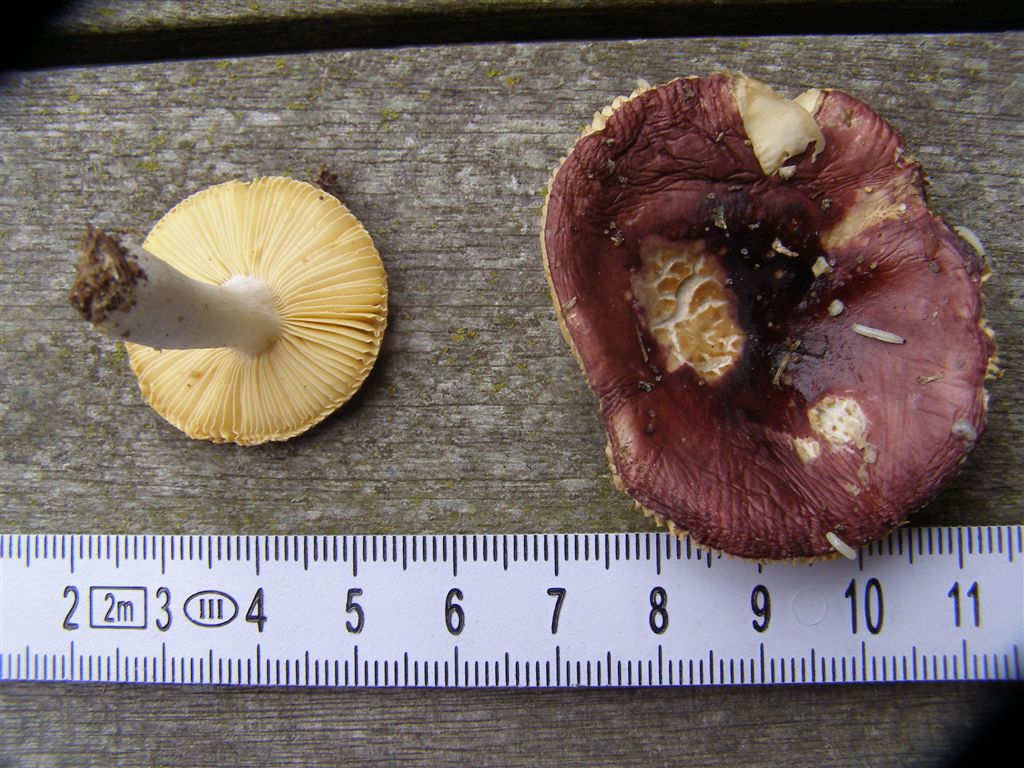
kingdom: Fungi
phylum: Basidiomycota
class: Agaricomycetes
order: Russulales
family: Russulaceae
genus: Russula
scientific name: Russula cessans
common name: fyrre-skørhat
